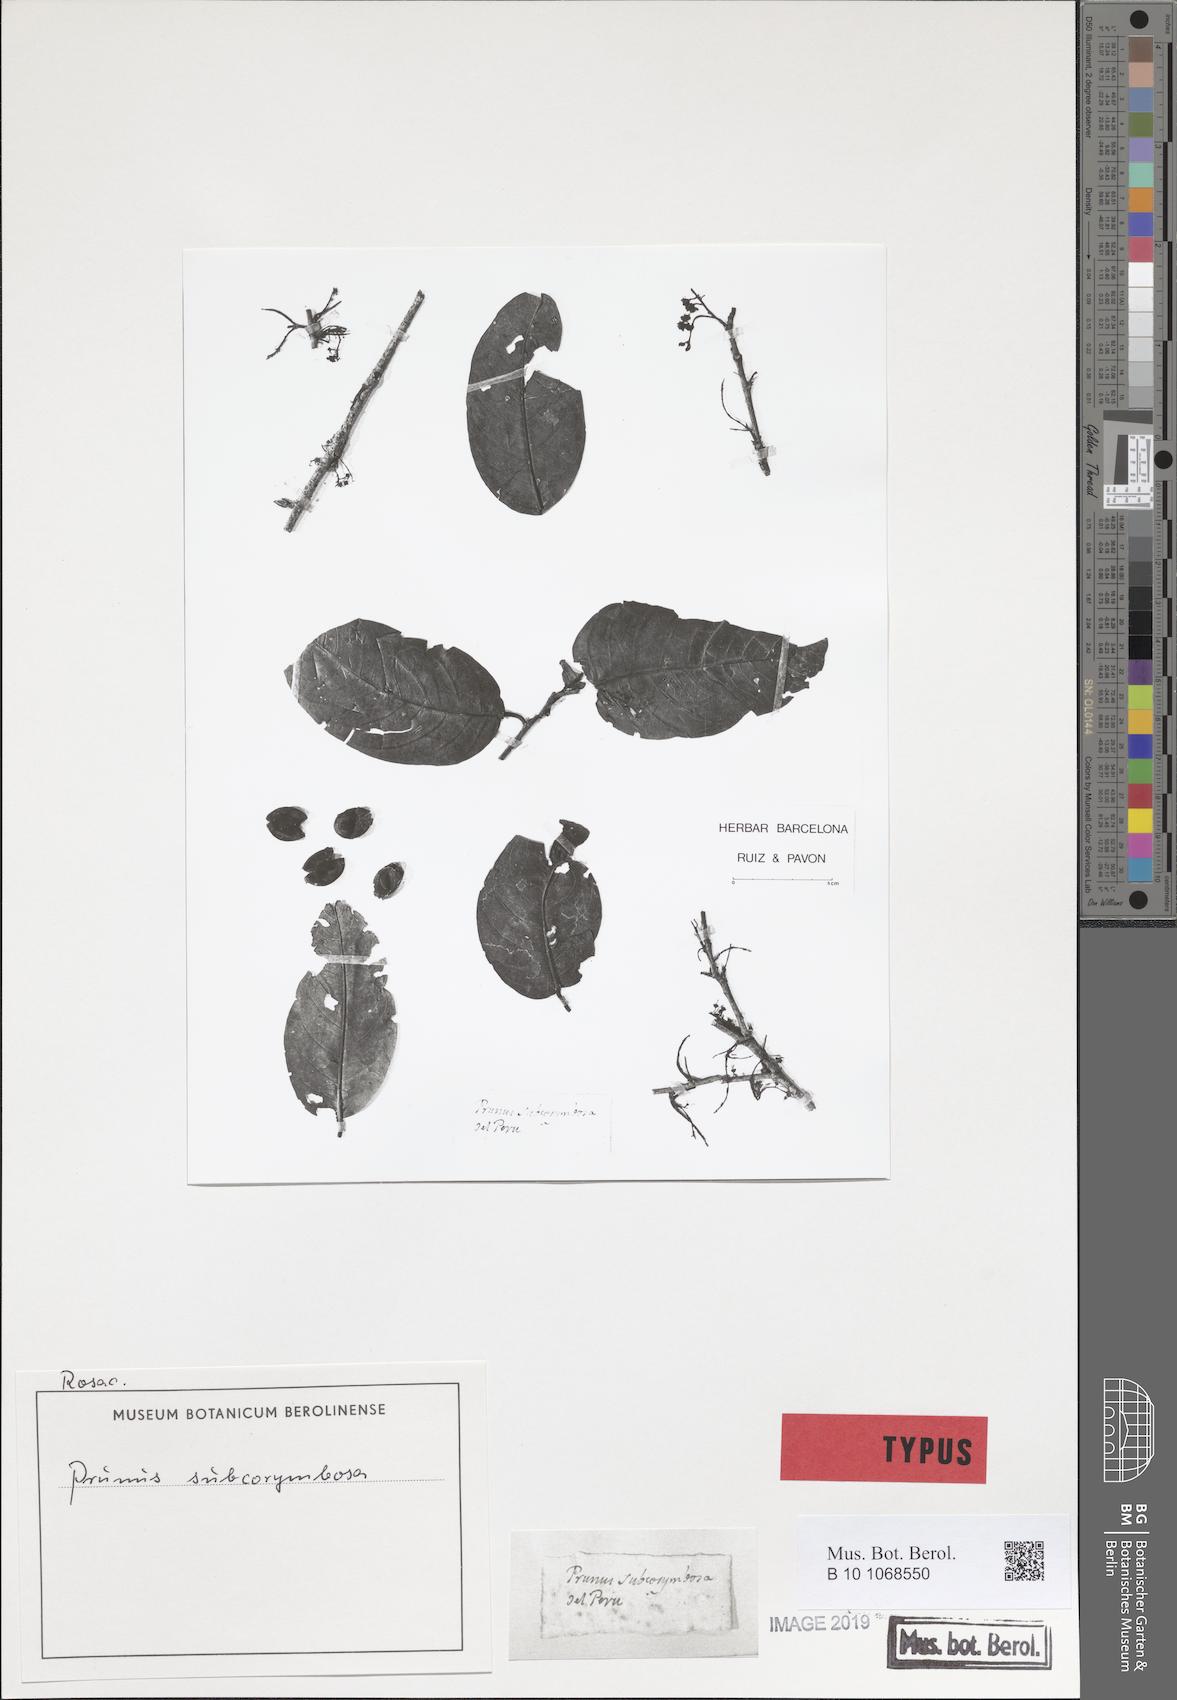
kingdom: Plantae
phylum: Tracheophyta
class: Magnoliopsida
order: Rosales
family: Rosaceae
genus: Prunus
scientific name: Prunus subcorymbosa
